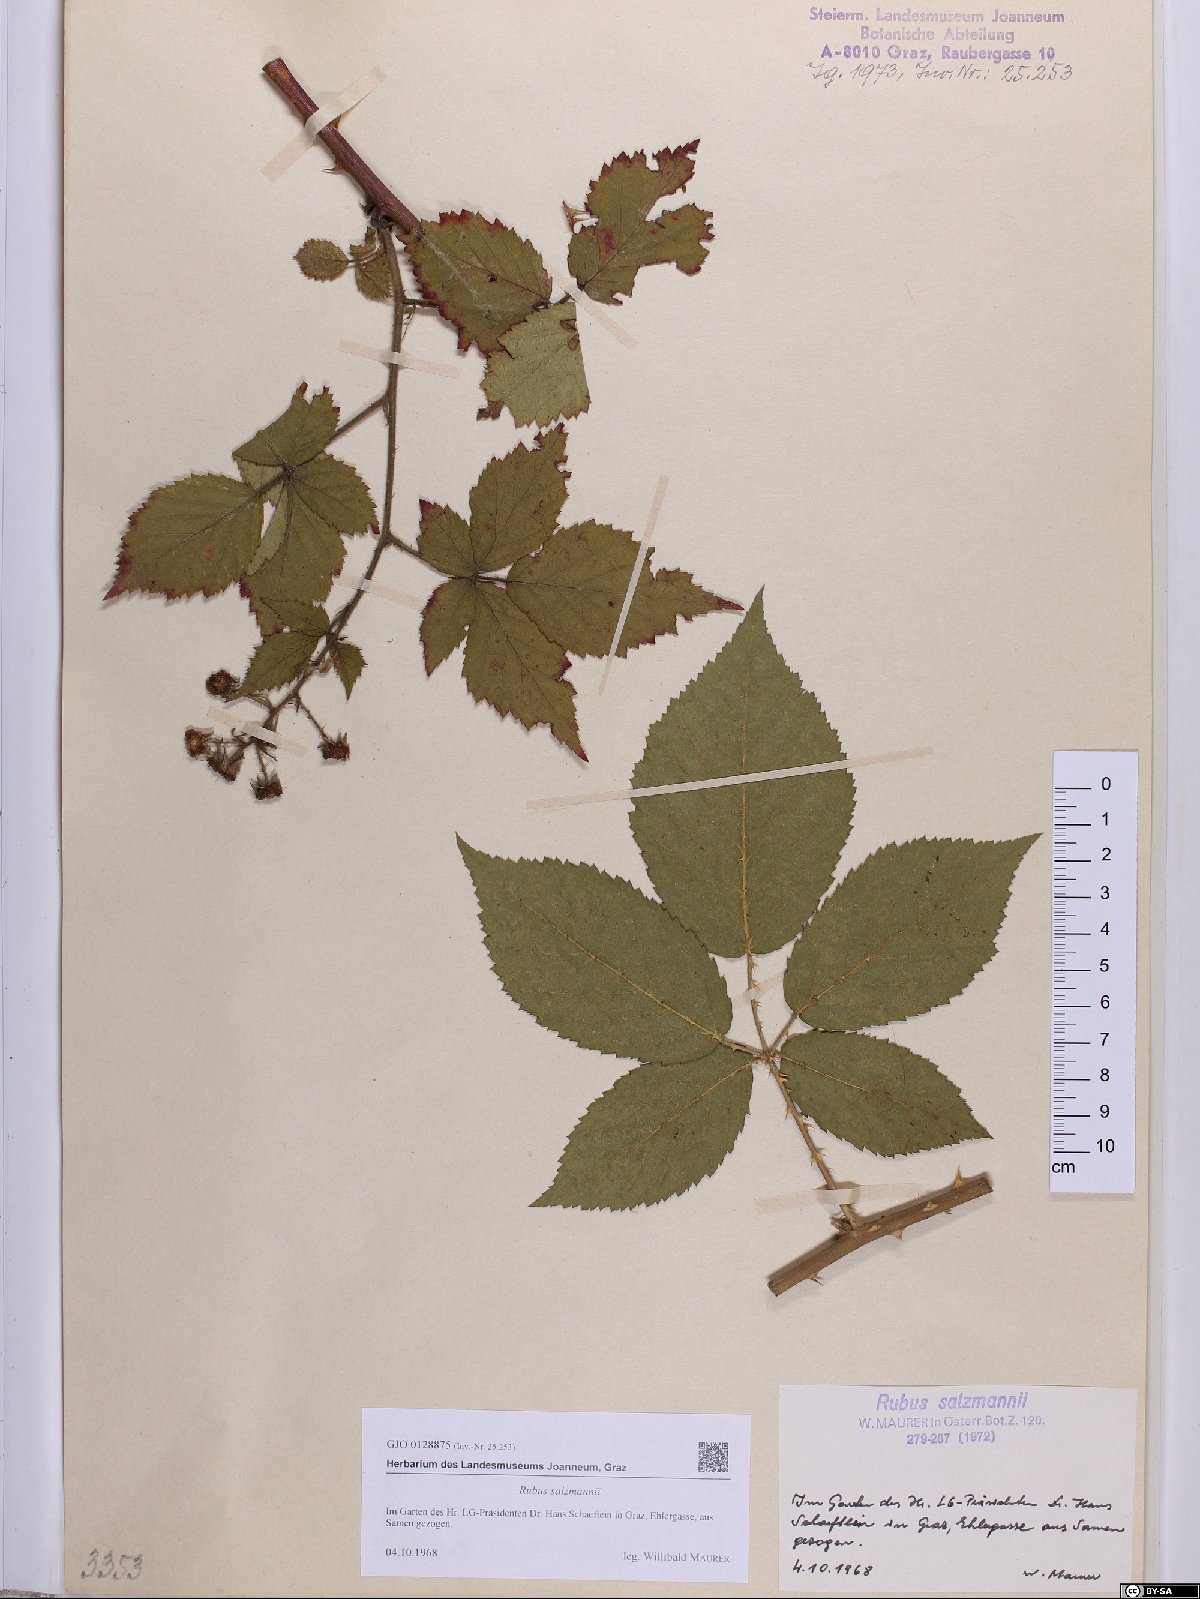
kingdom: Plantae
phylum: Tracheophyta
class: Magnoliopsida
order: Rosales
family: Rosaceae
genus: Rubus
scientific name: Rubus salzmannii
